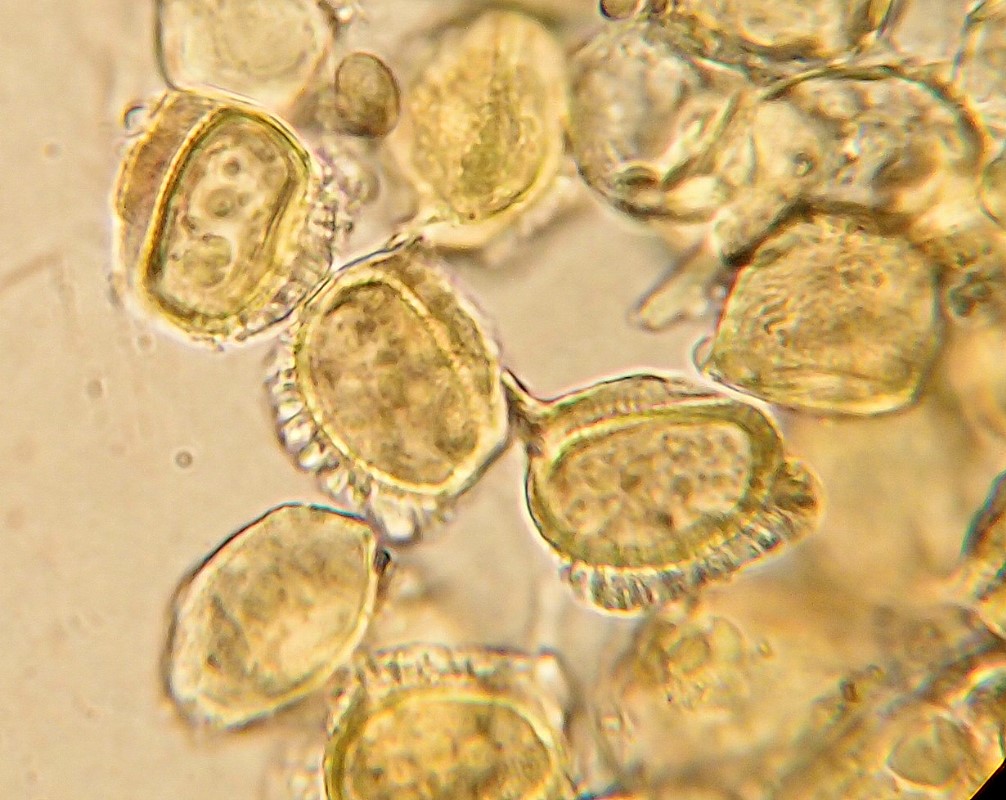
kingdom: Fungi
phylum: Basidiomycota
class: Pucciniomycetes
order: Pucciniales
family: Pucciniaceae
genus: Puccinia
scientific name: Puccinia pulverulenta
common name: dueurt-tvecellerust
